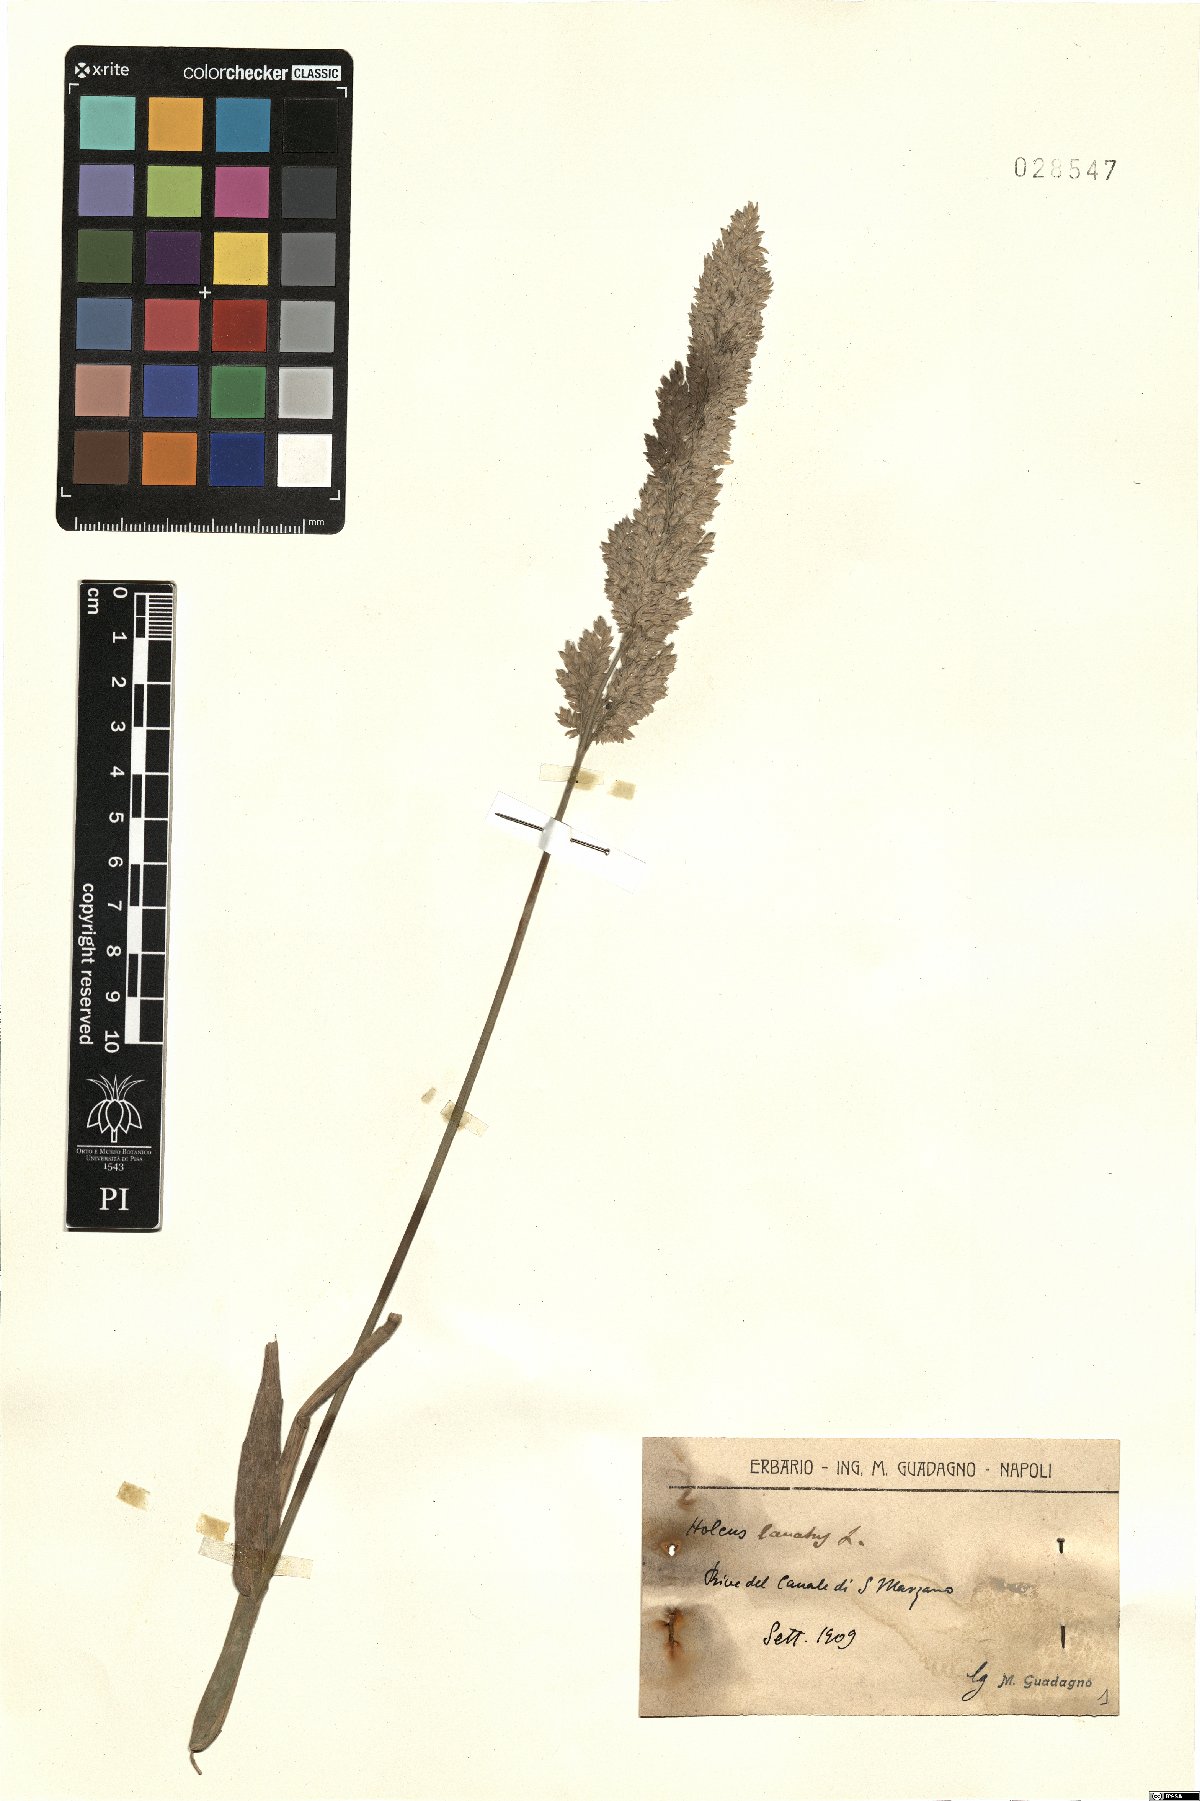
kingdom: Plantae
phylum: Tracheophyta
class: Liliopsida
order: Poales
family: Poaceae
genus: Holcus
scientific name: Holcus lanatus
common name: Yorkshire-fog
